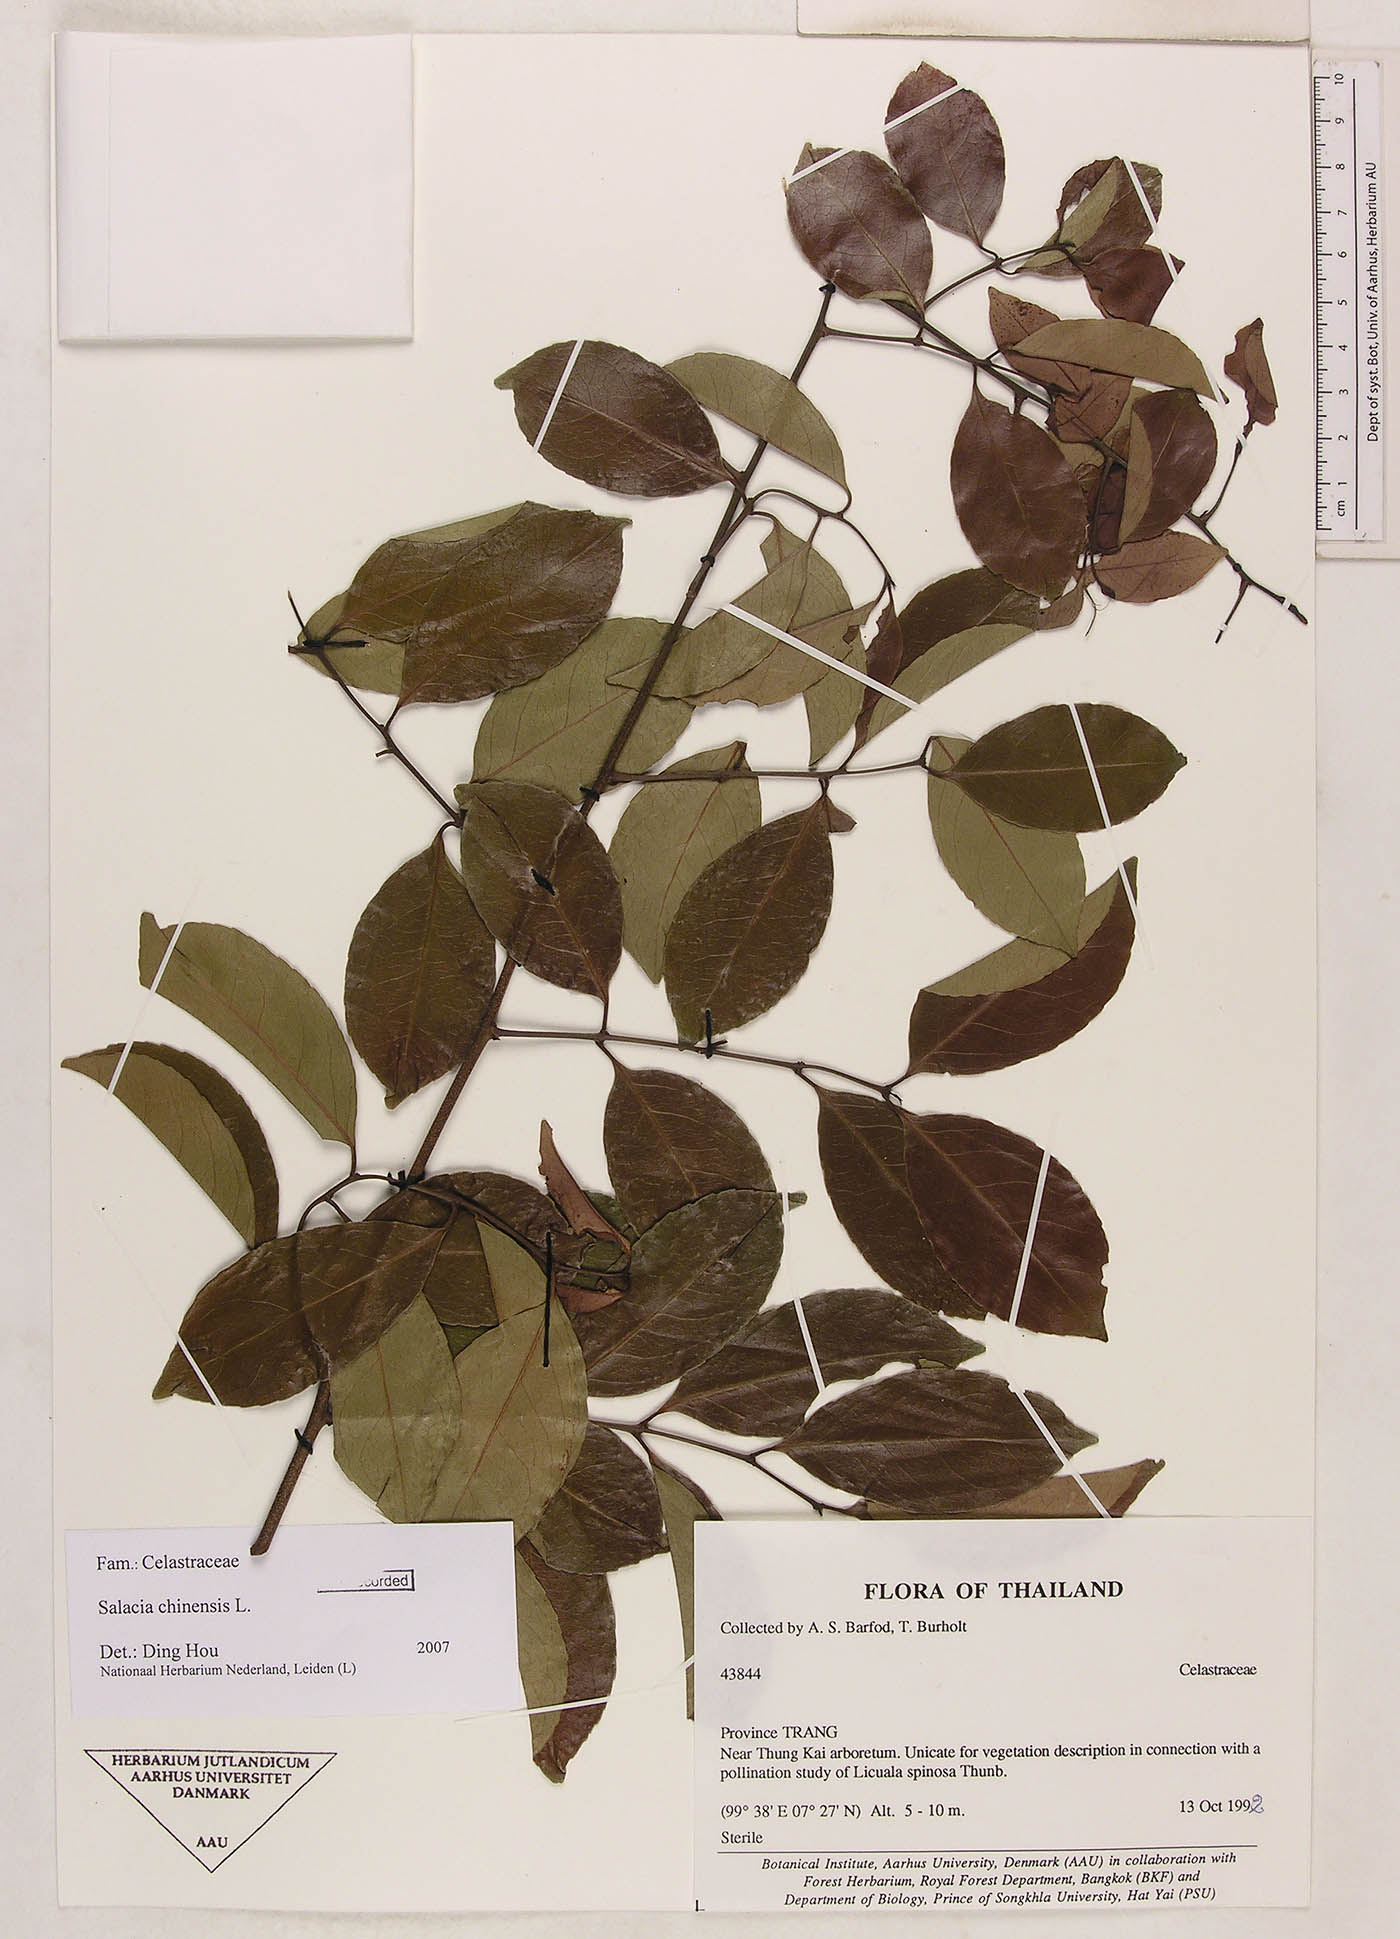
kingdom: Plantae
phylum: Tracheophyta
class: Magnoliopsida
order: Celastrales
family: Celastraceae
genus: Salacia
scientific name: Salacia chinensis
